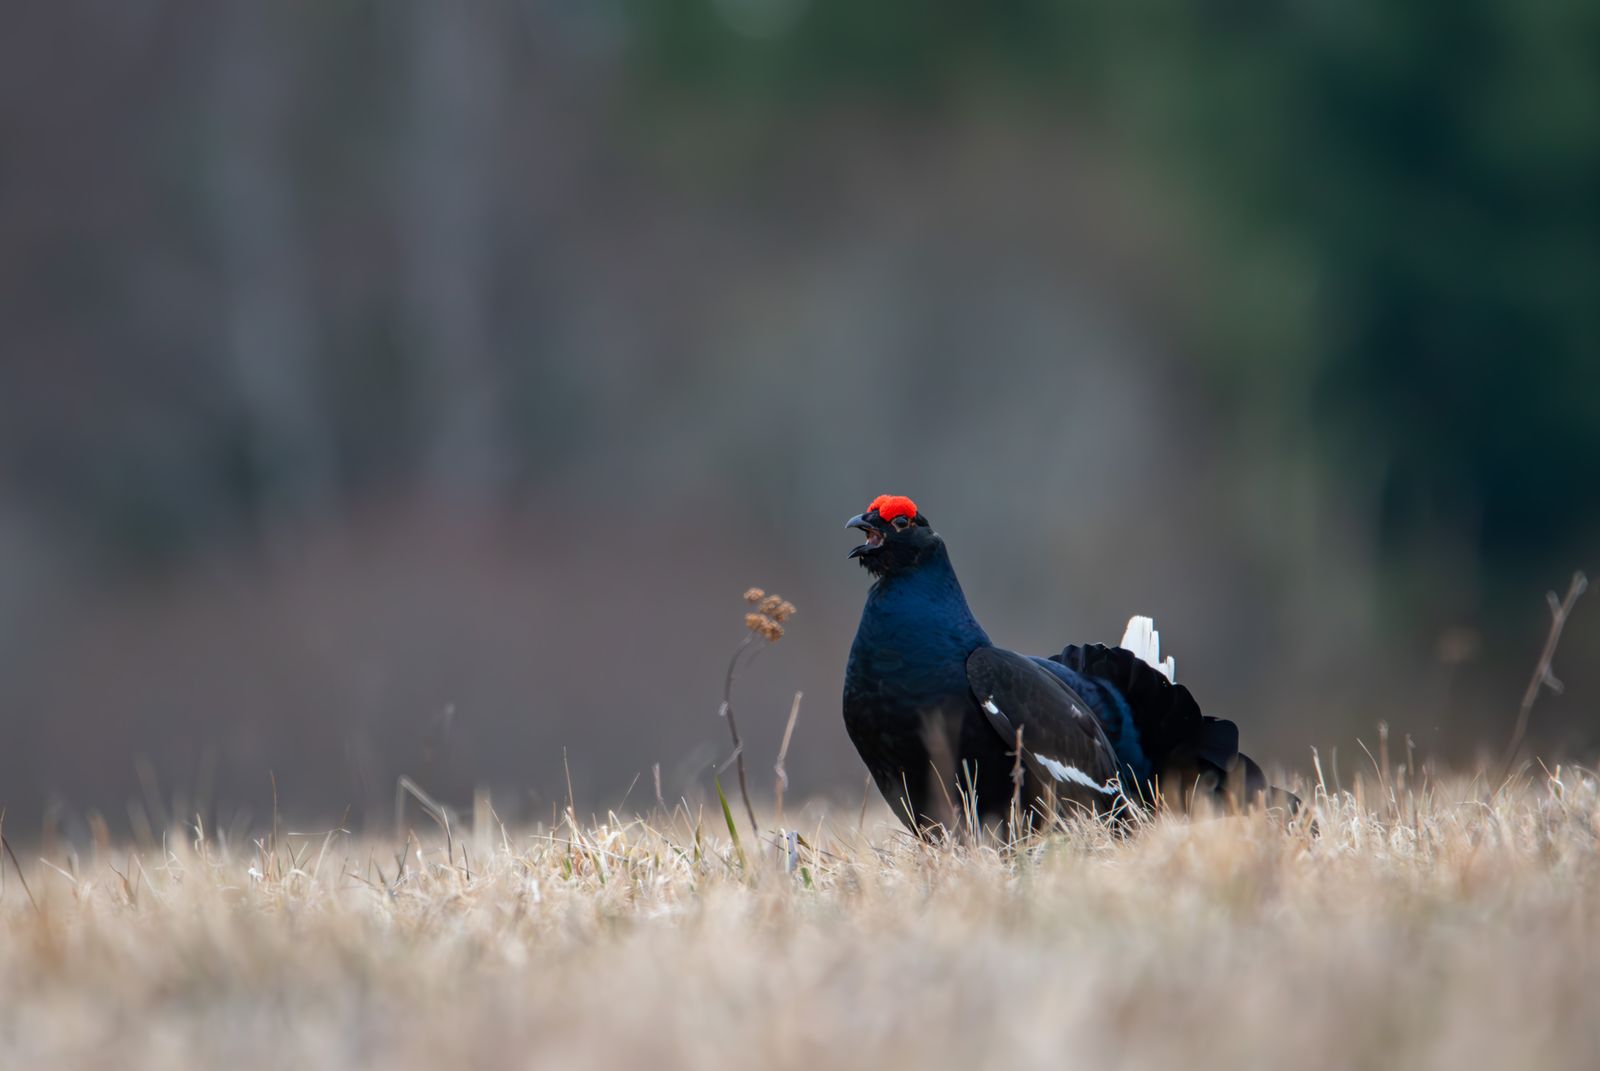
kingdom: Animalia
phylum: Chordata
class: Aves
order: Galliformes
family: Phasianidae
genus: Lyrurus
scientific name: Lyrurus tetrix
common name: Black grouse
